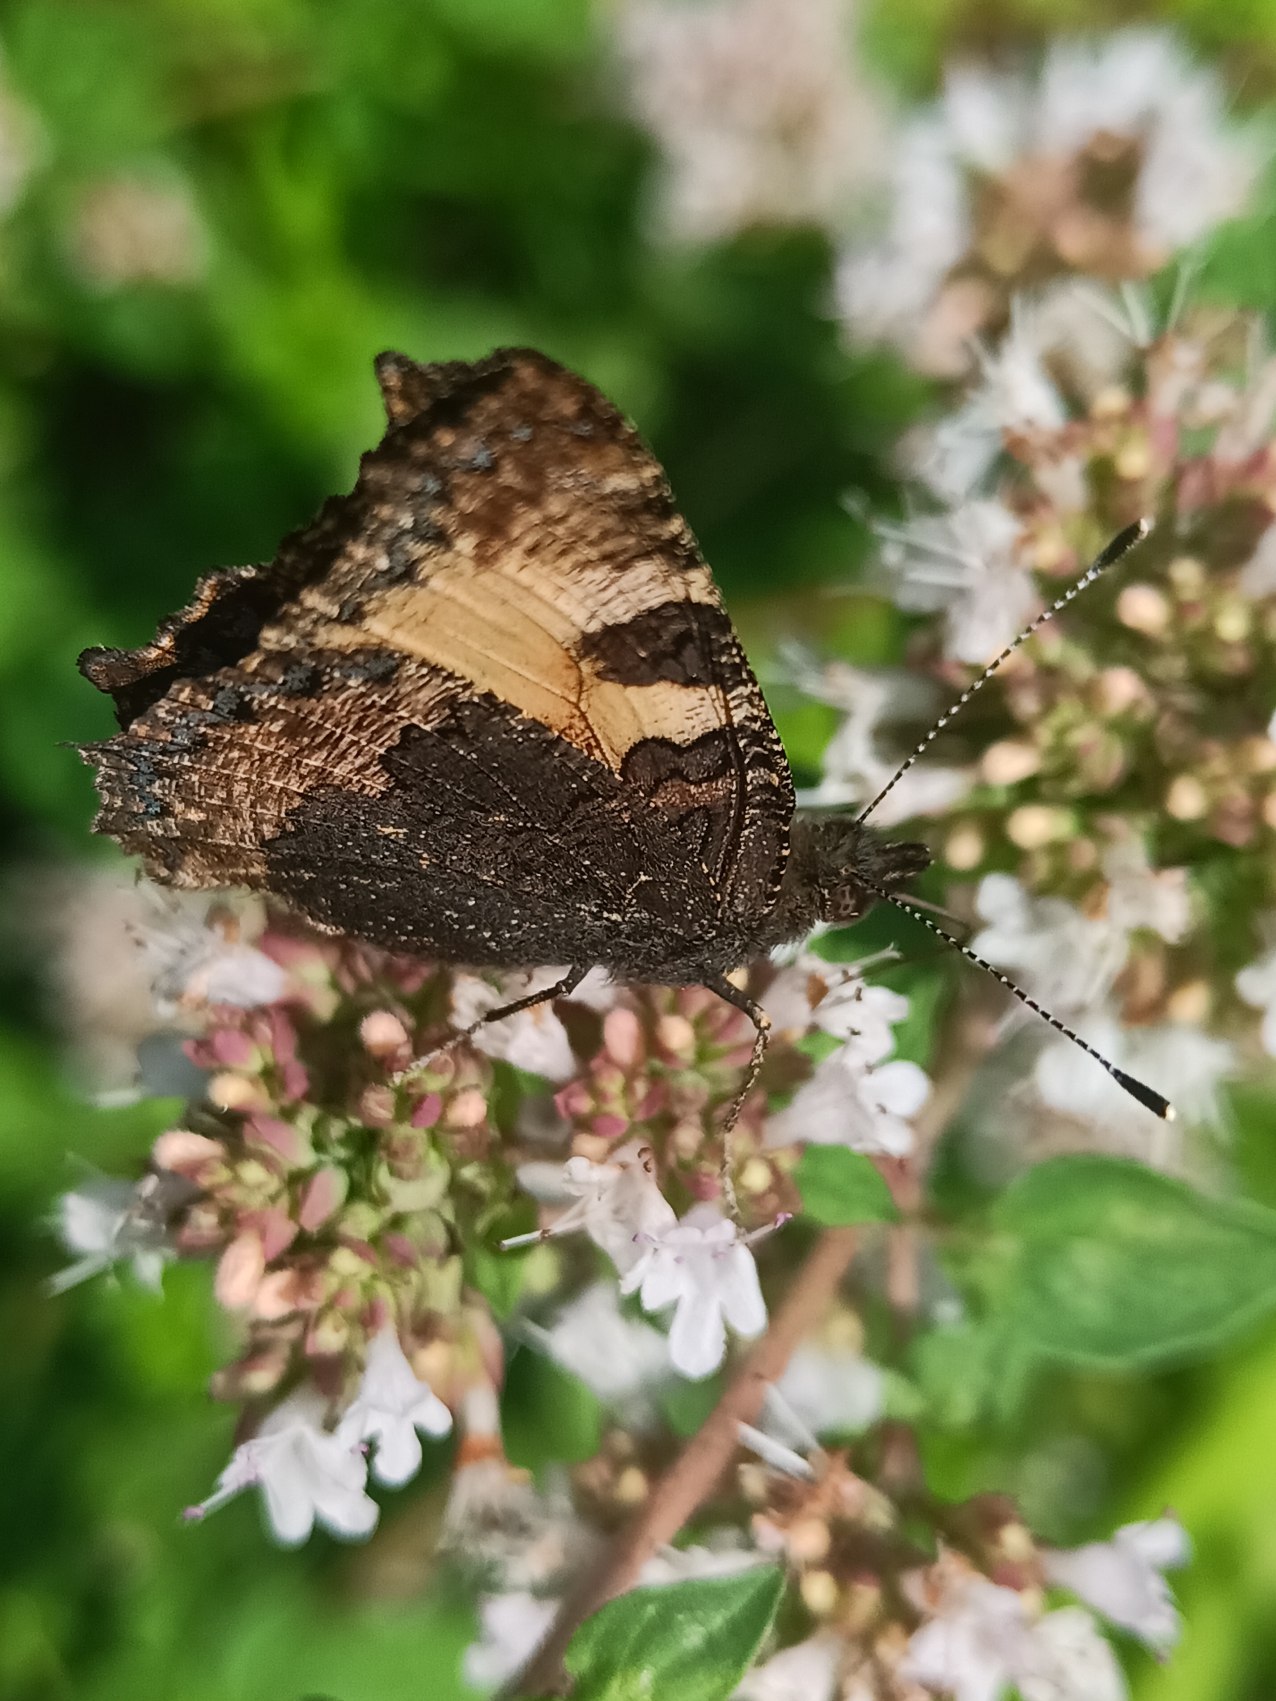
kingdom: Animalia
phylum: Arthropoda
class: Insecta
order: Lepidoptera
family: Nymphalidae
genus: Aglais
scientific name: Aglais urticae
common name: Nældens takvinge
